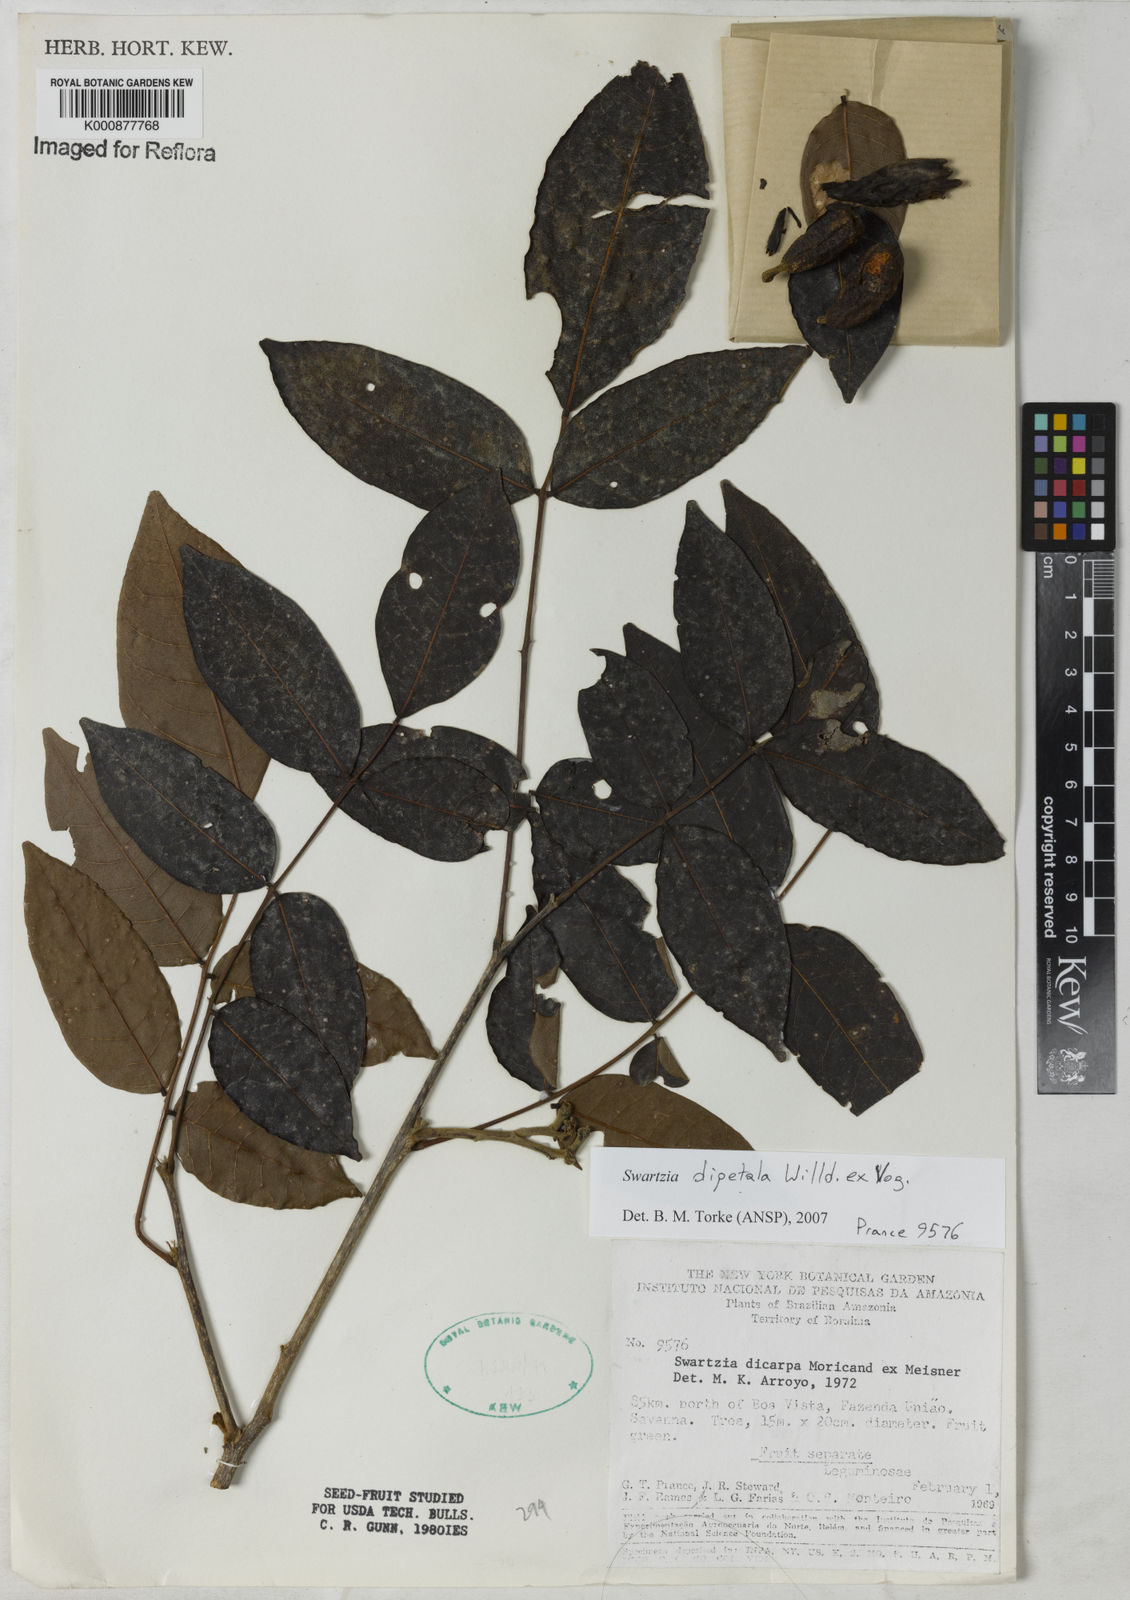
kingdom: Plantae
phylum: Tracheophyta
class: Magnoliopsida
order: Fabales
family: Fabaceae
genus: Swartzia
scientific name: Swartzia dipetala
